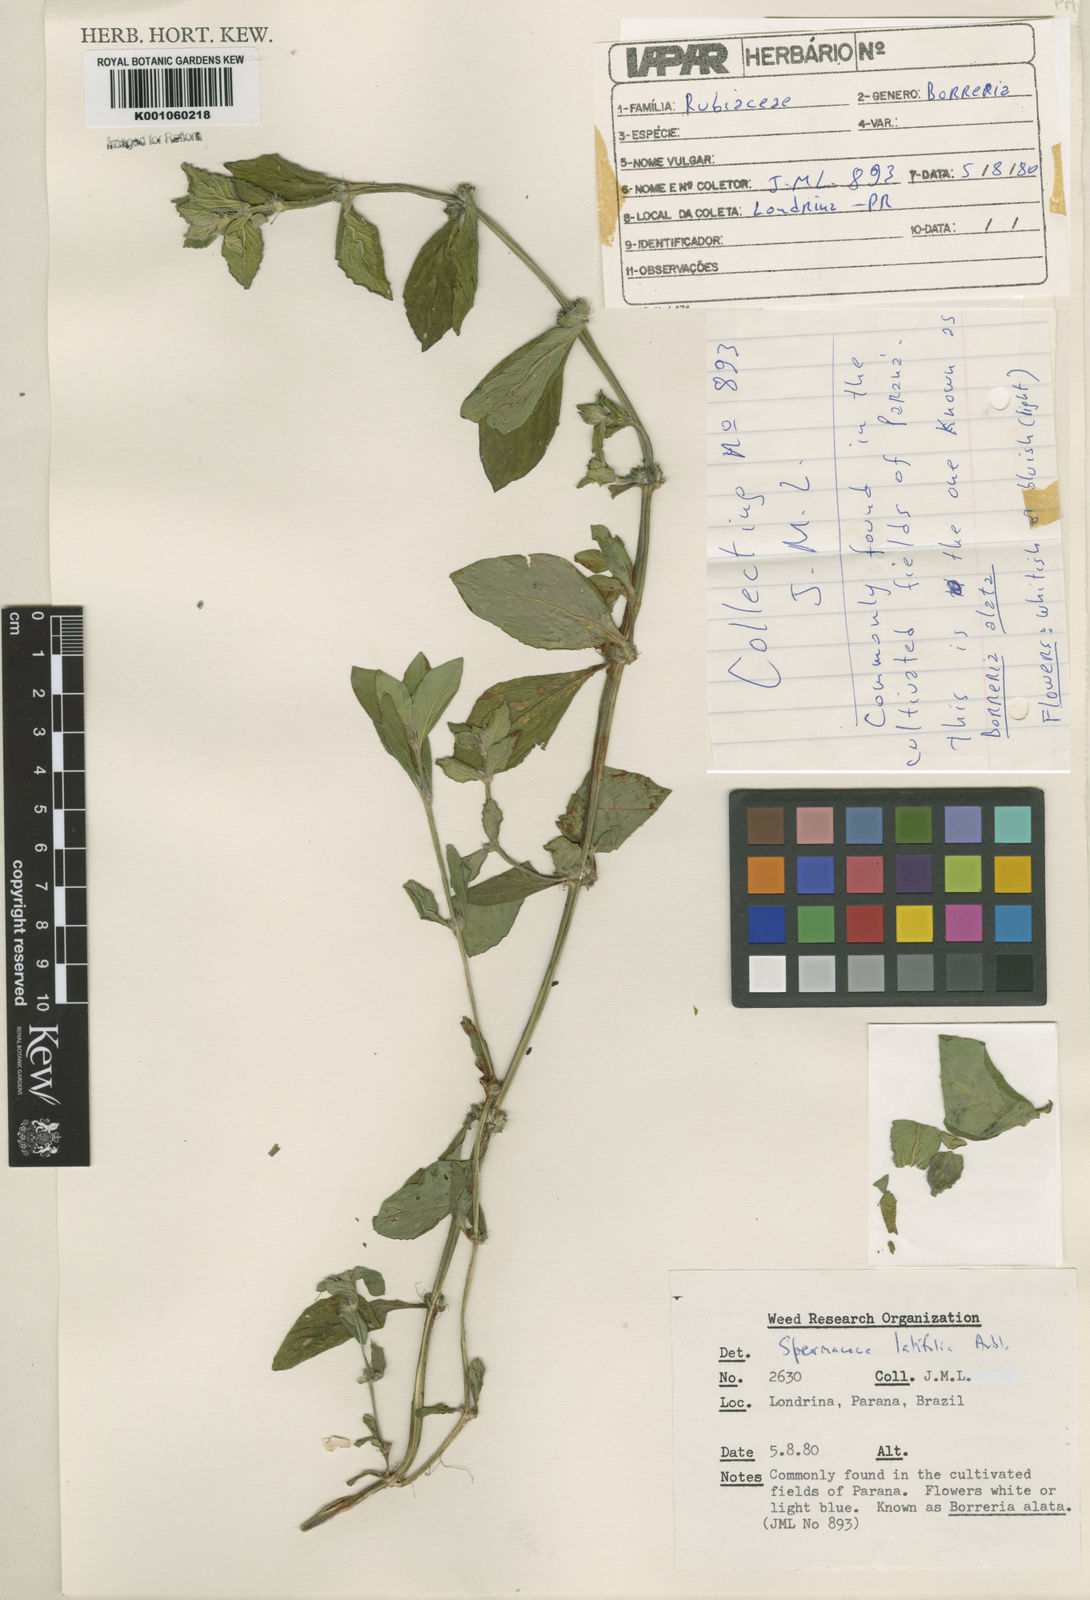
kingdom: Plantae
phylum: Tracheophyta
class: Magnoliopsida
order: Gentianales
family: Rubiaceae
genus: Spermacoce
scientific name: Spermacoce
